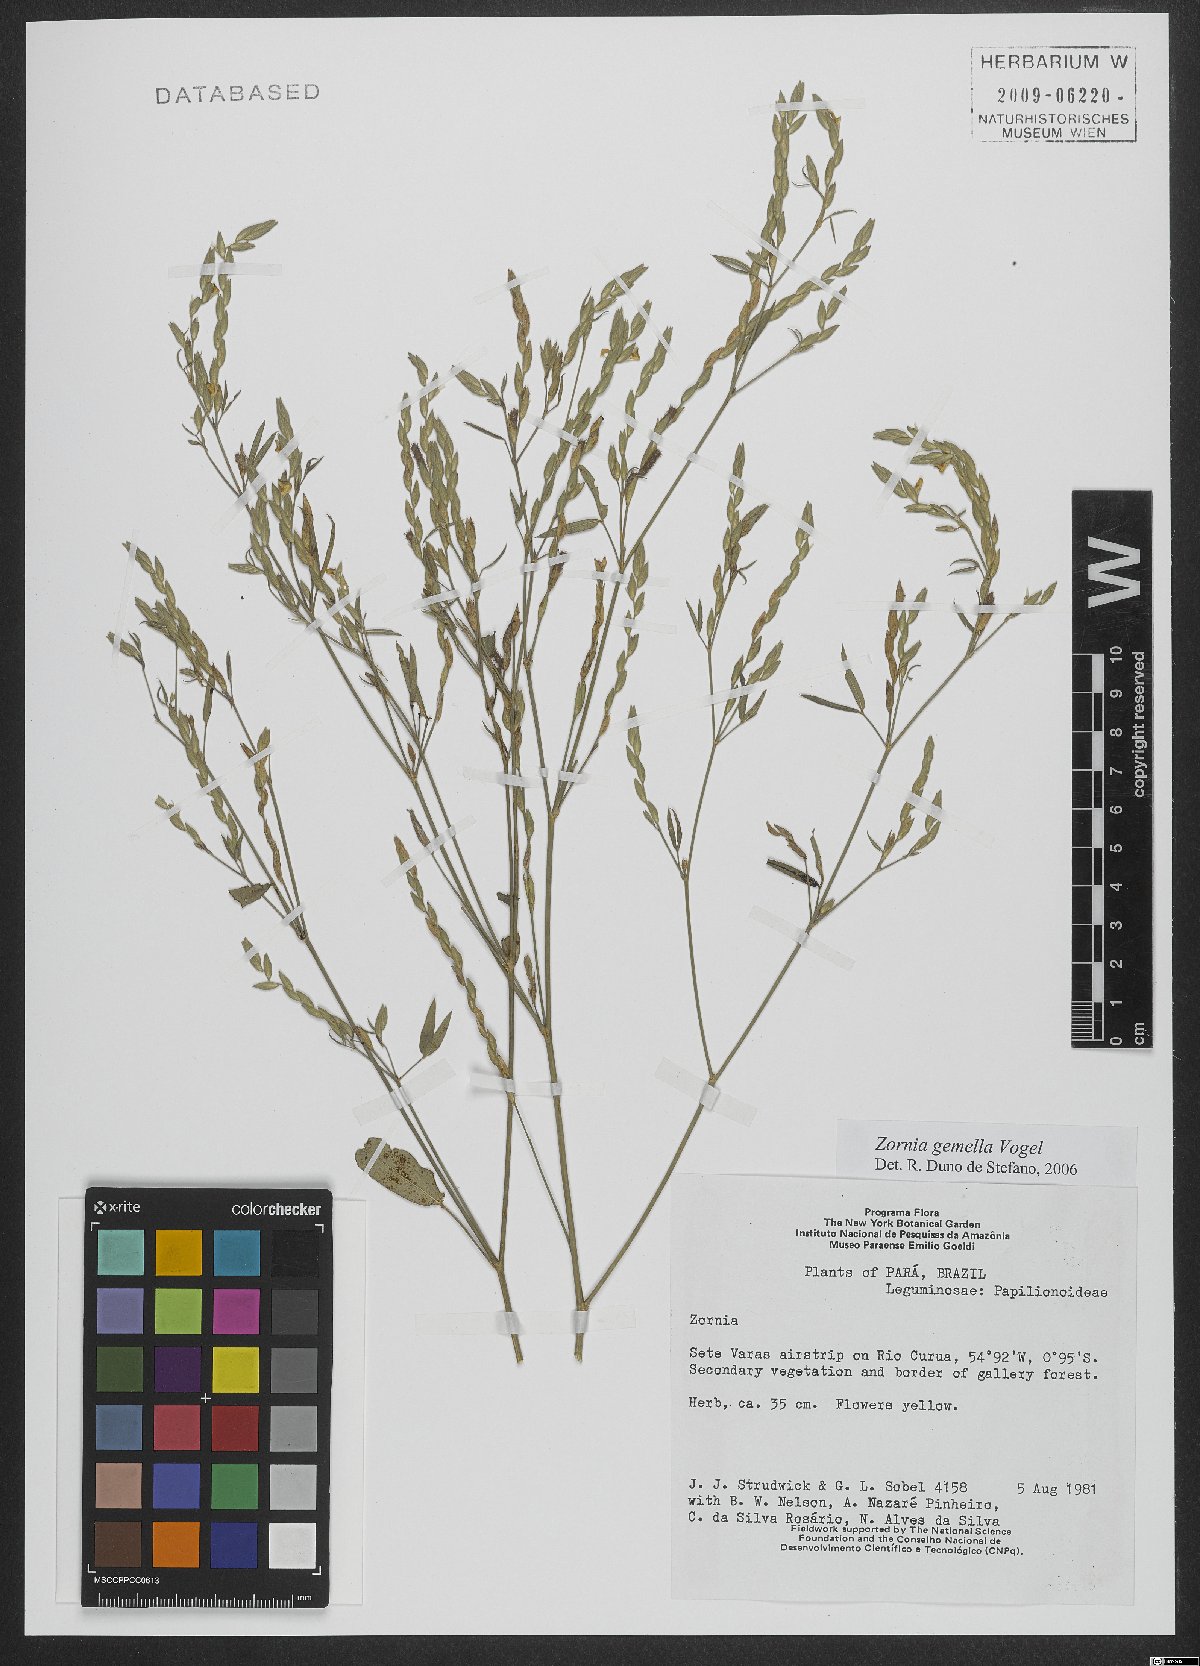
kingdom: Plantae
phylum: Tracheophyta
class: Magnoliopsida
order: Fabales
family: Fabaceae
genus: Zornia
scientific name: Zornia latifolia
